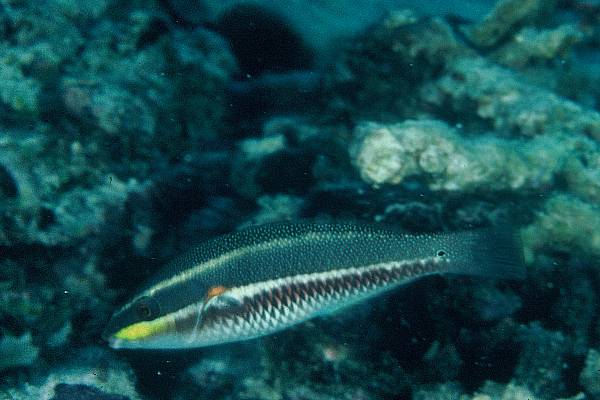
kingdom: Animalia
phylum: Chordata
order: Perciformes
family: Labridae
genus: Stethojulis
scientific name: Stethojulis bandanensis
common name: Red shoulder wrasse
